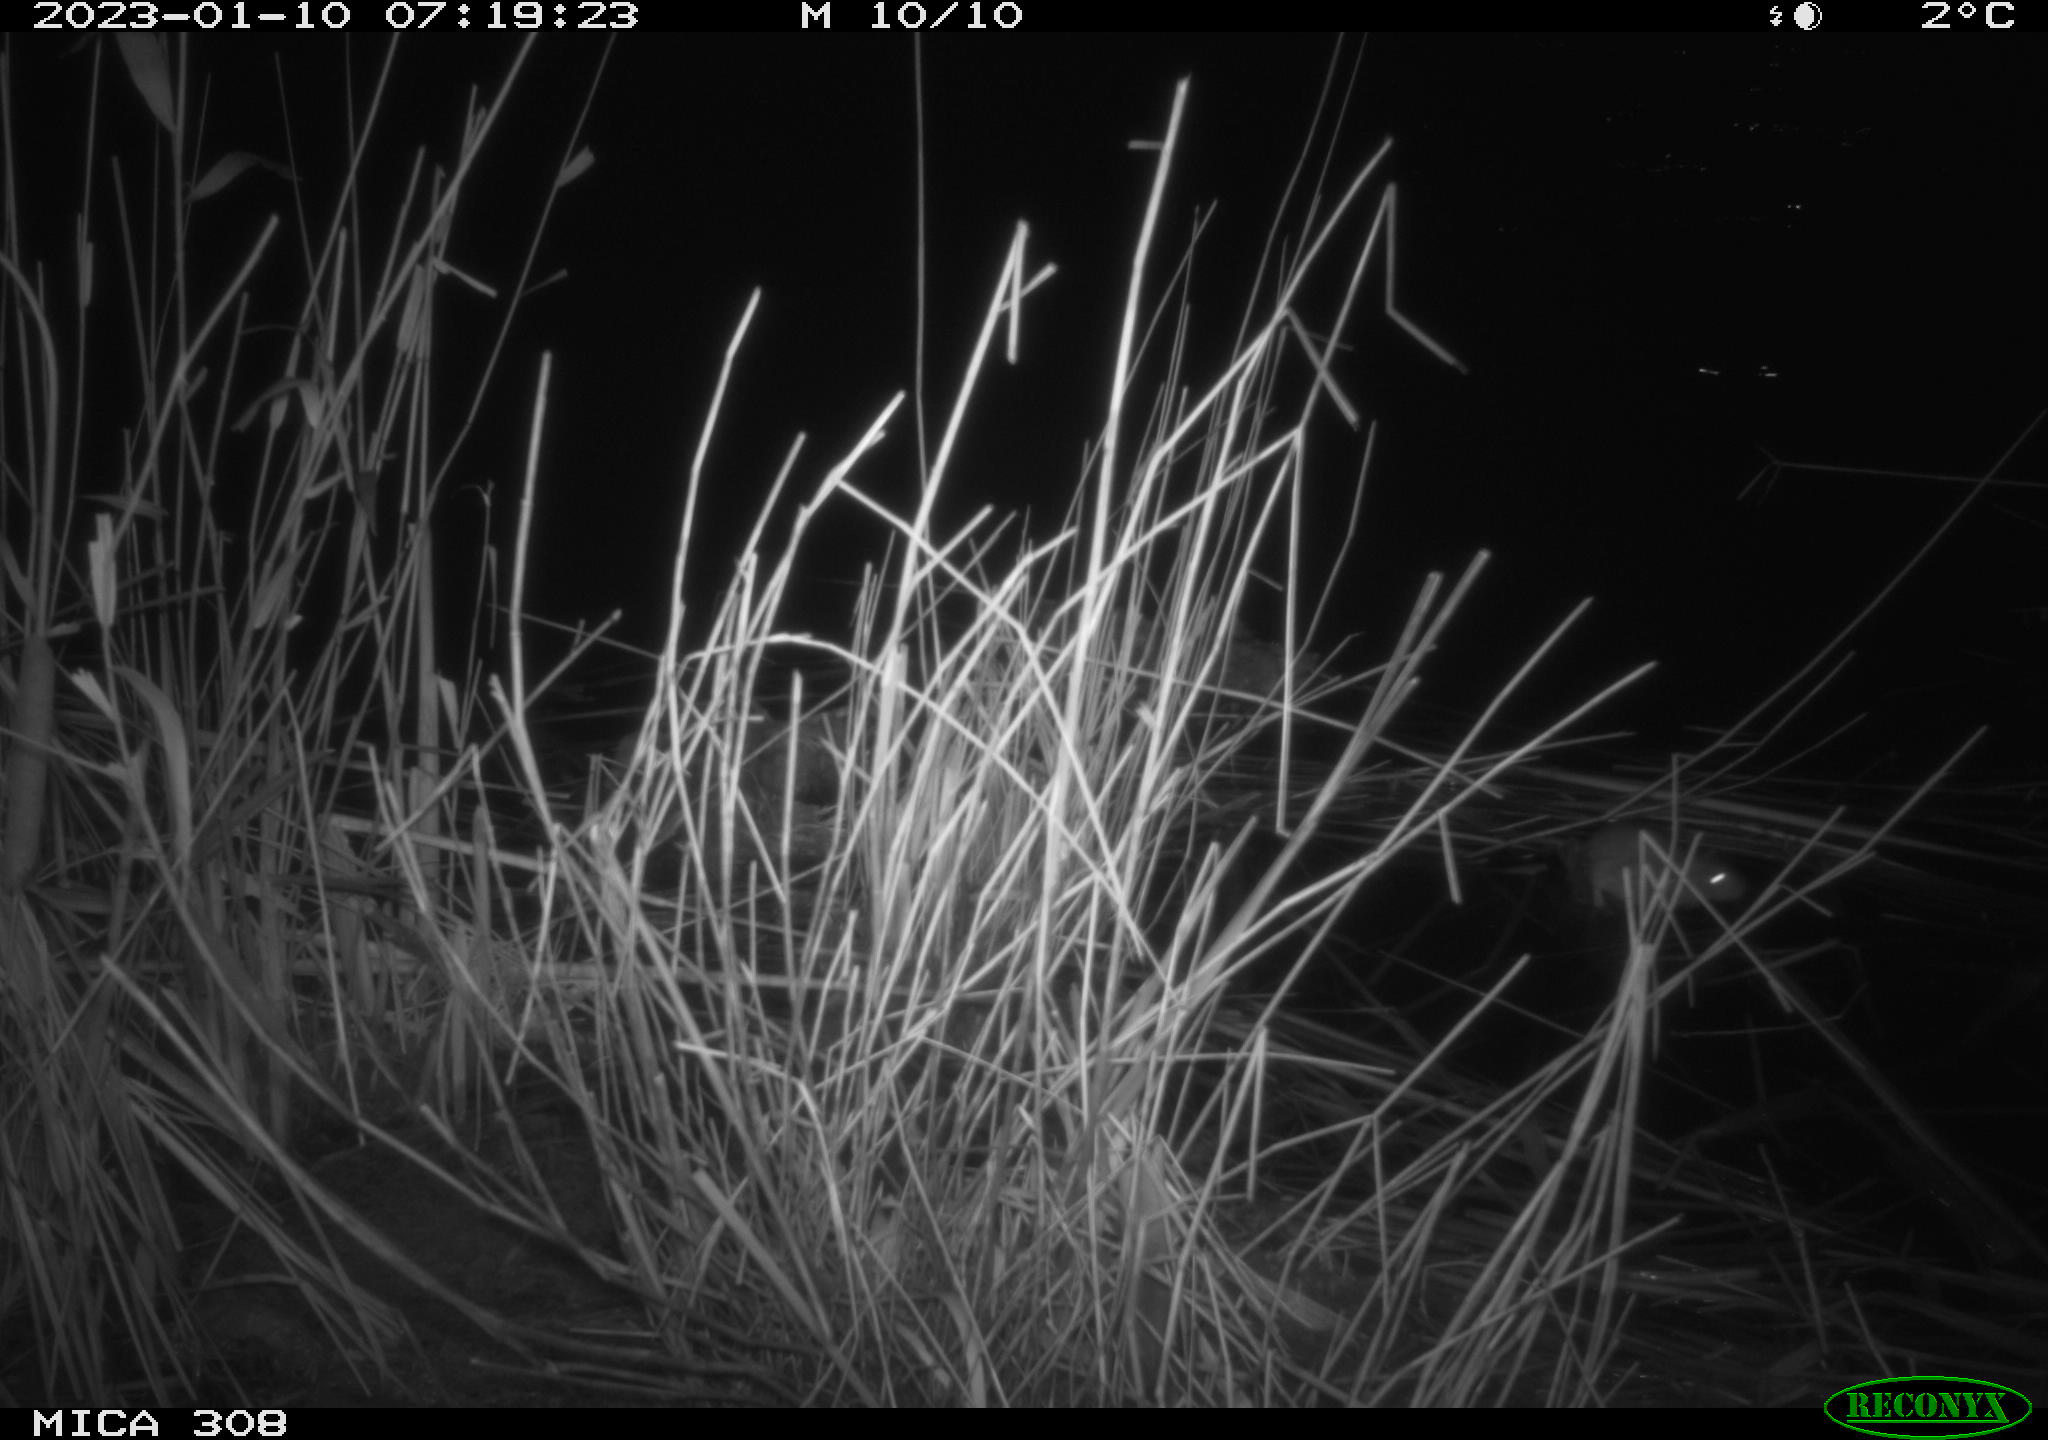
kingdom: Animalia
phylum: Chordata
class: Mammalia
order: Rodentia
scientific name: Rodentia
